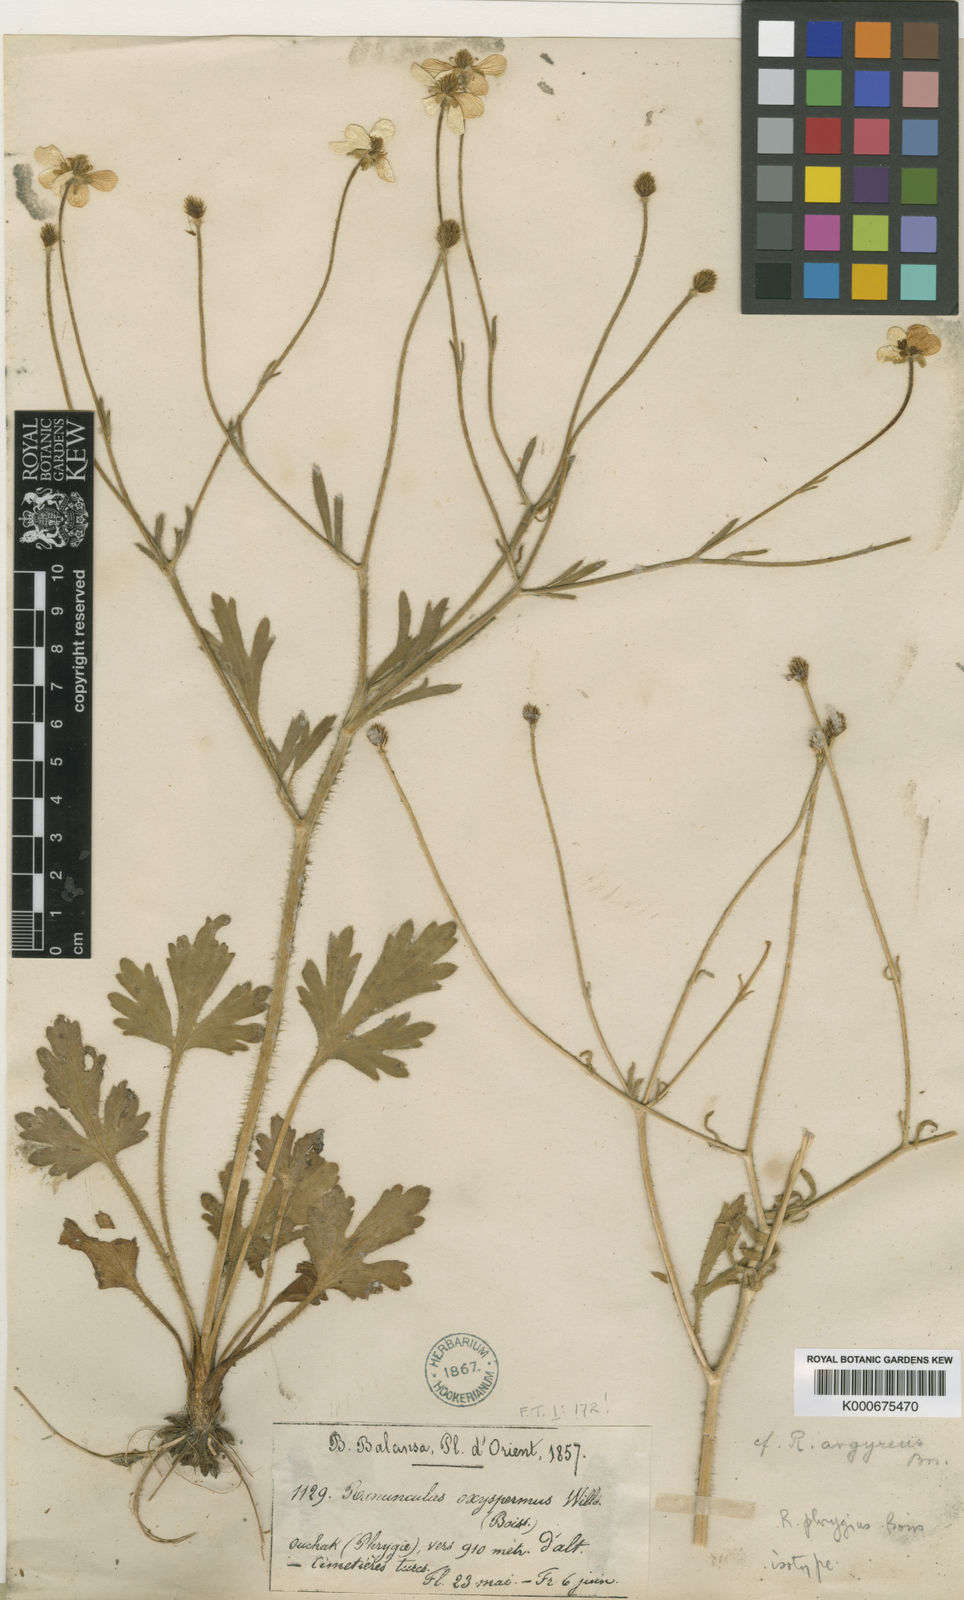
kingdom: Plantae
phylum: Tracheophyta
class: Magnoliopsida
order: Ranunculales
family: Ranunculaceae
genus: Ranunculus
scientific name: Ranunculus damascenus
